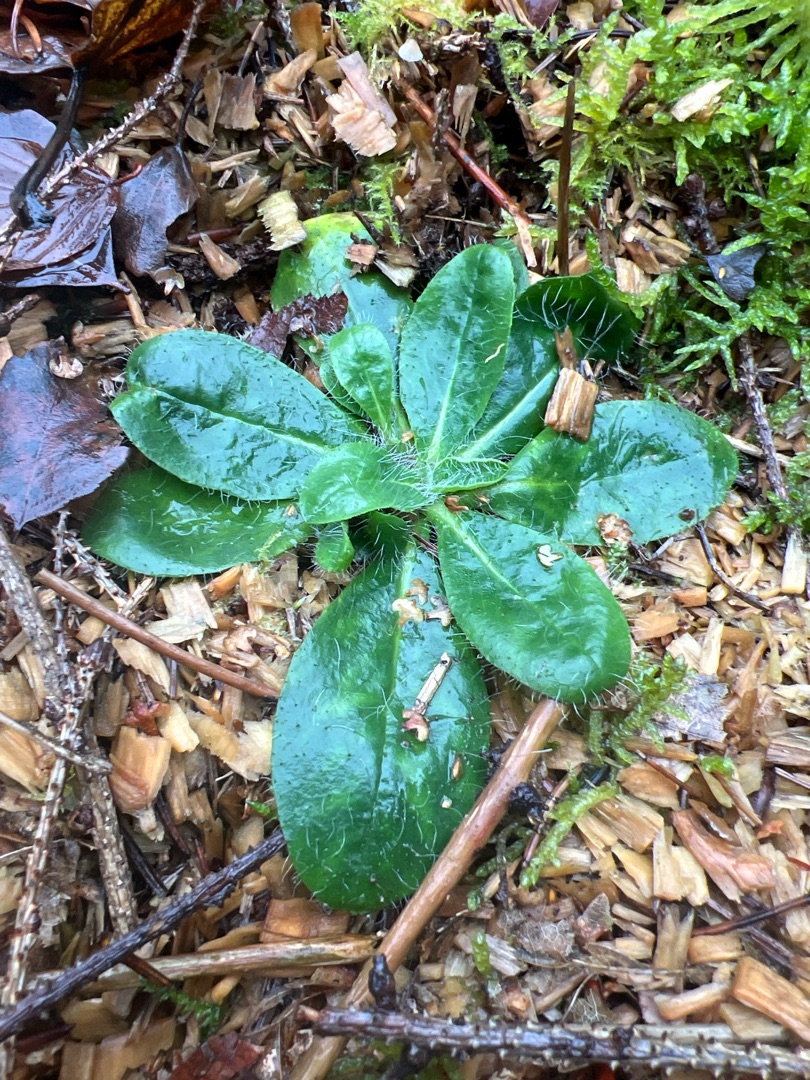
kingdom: Plantae
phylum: Tracheophyta
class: Magnoliopsida
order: Asterales
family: Asteraceae
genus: Pilosella
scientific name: Pilosella
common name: Høgeurt (Pilosella-slægten)
